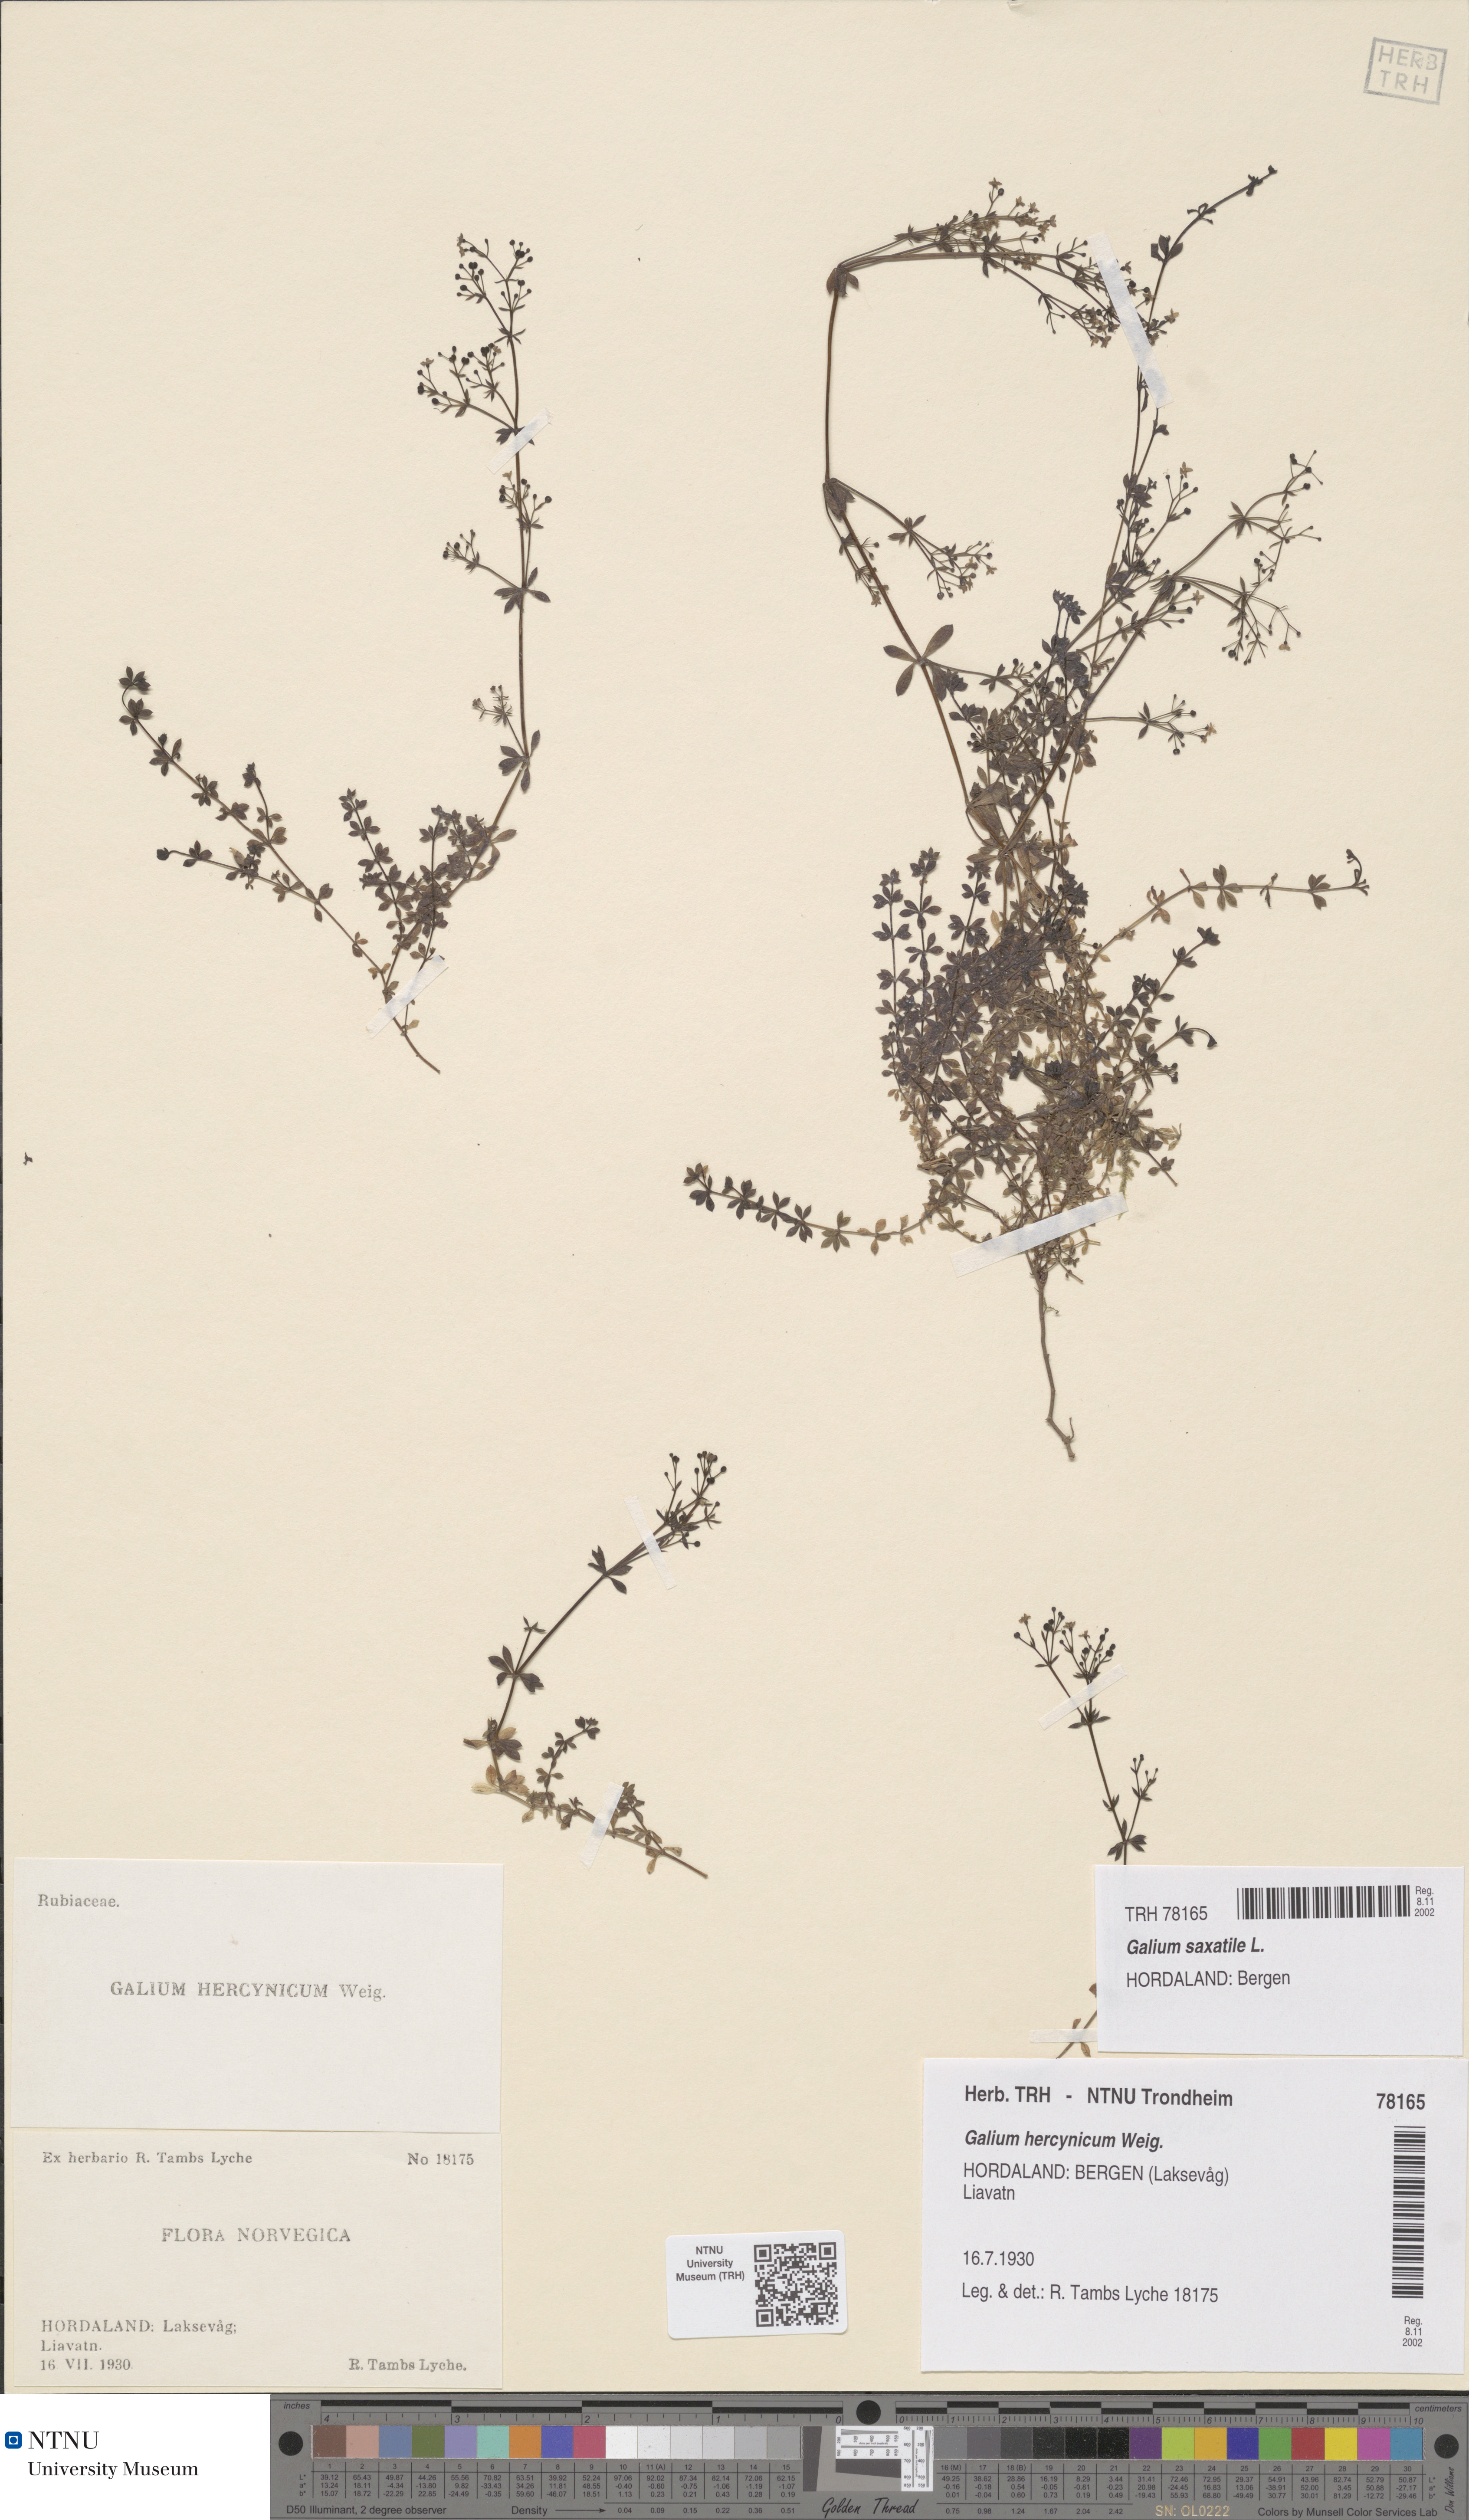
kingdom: Plantae
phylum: Tracheophyta
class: Magnoliopsida
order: Gentianales
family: Rubiaceae
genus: Galium
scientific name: Galium saxatile
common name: Heath bedstraw
